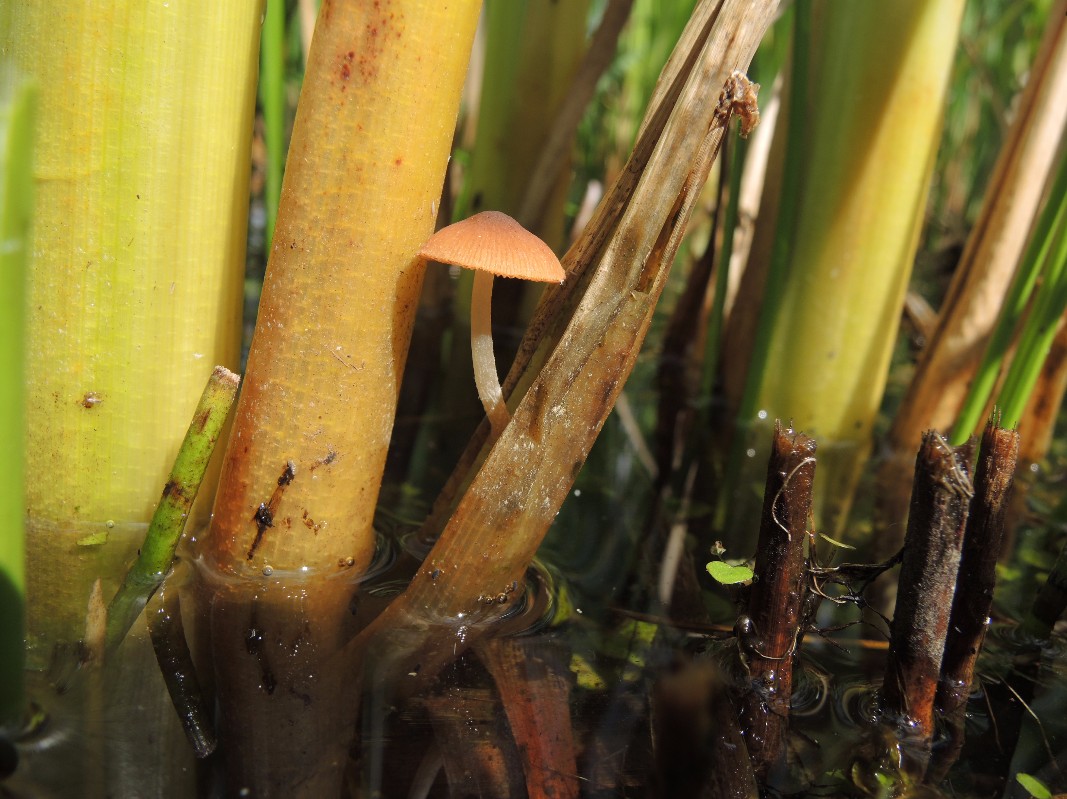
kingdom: Fungi
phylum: Basidiomycota
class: Agaricomycetes
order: Agaricales
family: Psathyrellaceae
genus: Candolleomyces
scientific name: Candolleomyces typhae
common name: dunhammer-mørkhat
